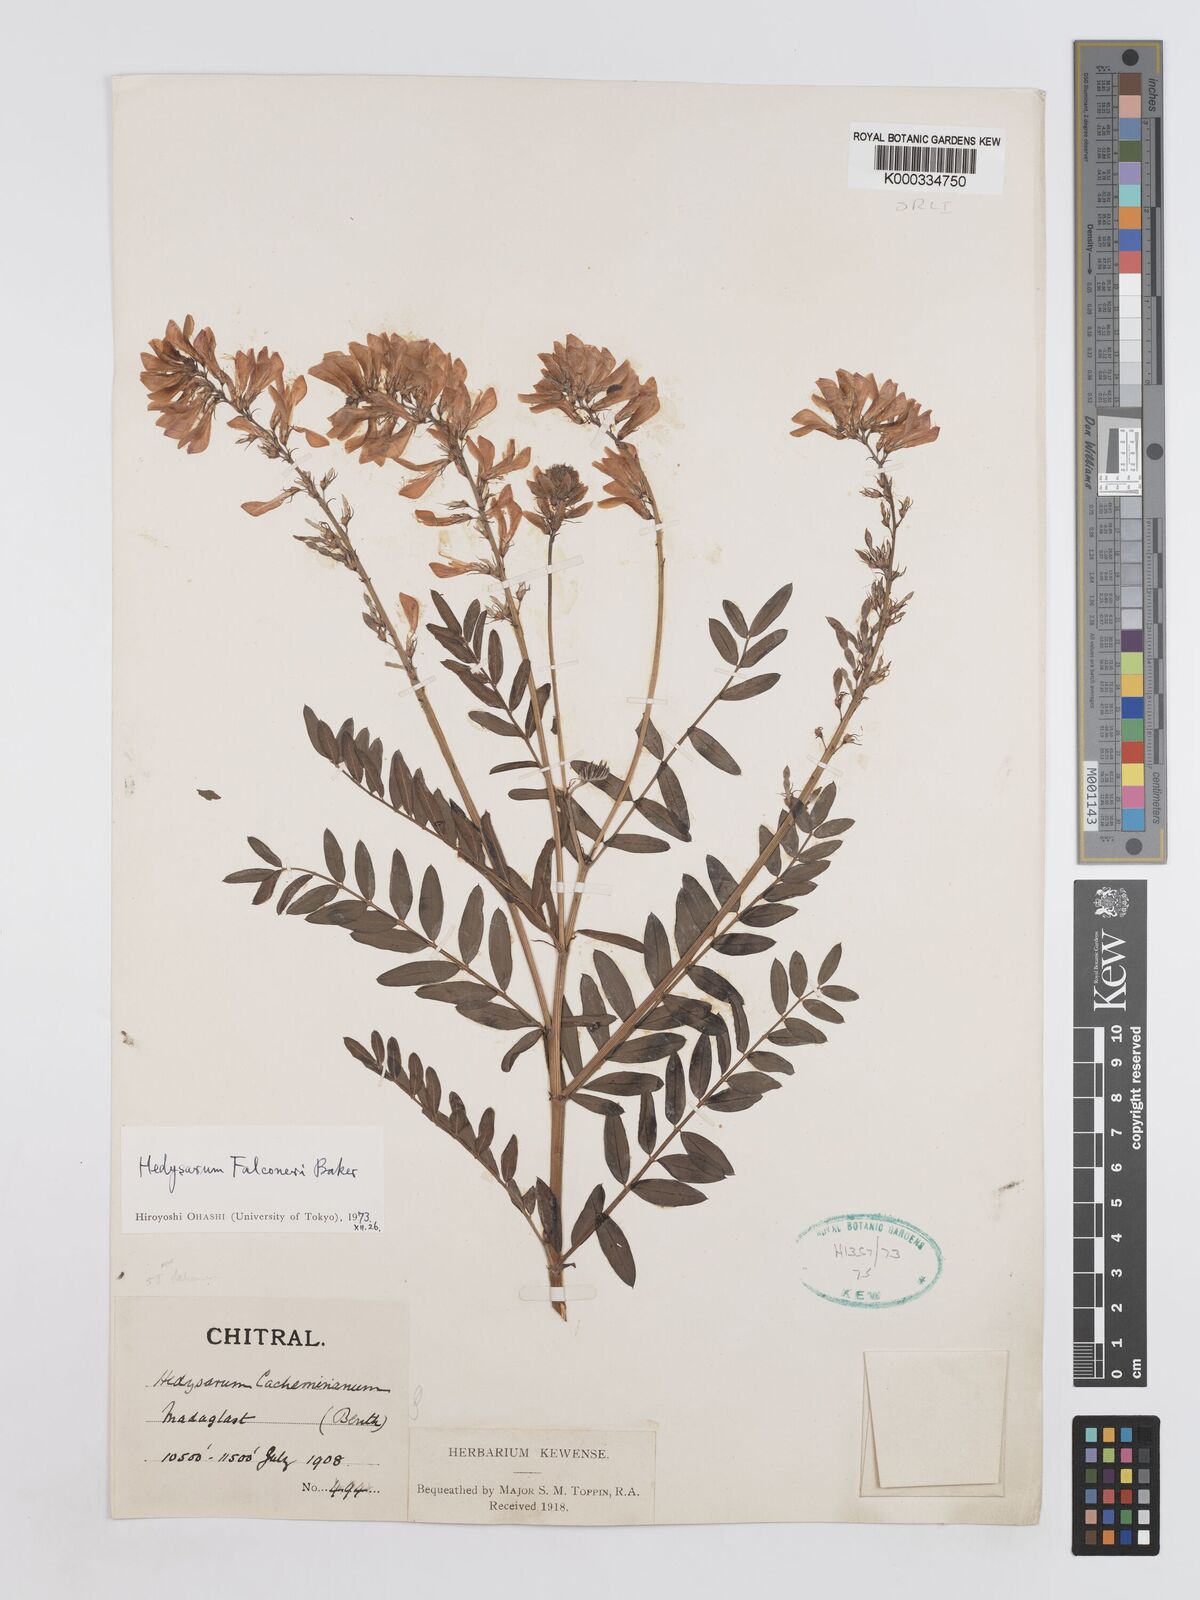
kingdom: Plantae
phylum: Tracheophyta
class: Magnoliopsida
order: Fabales
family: Fabaceae
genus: Hedysarum
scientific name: Hedysarum falconeri
